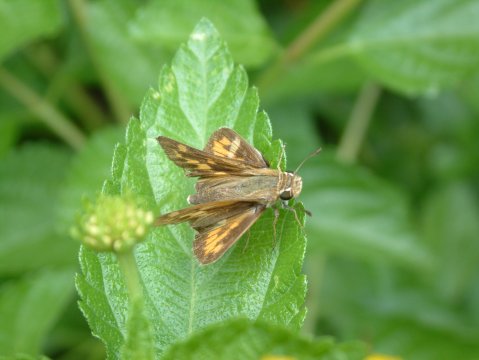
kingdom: Animalia
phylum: Arthropoda
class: Insecta
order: Lepidoptera
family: Hesperiidae
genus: Hylephila
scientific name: Hylephila phyleus
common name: Fiery Skipper
